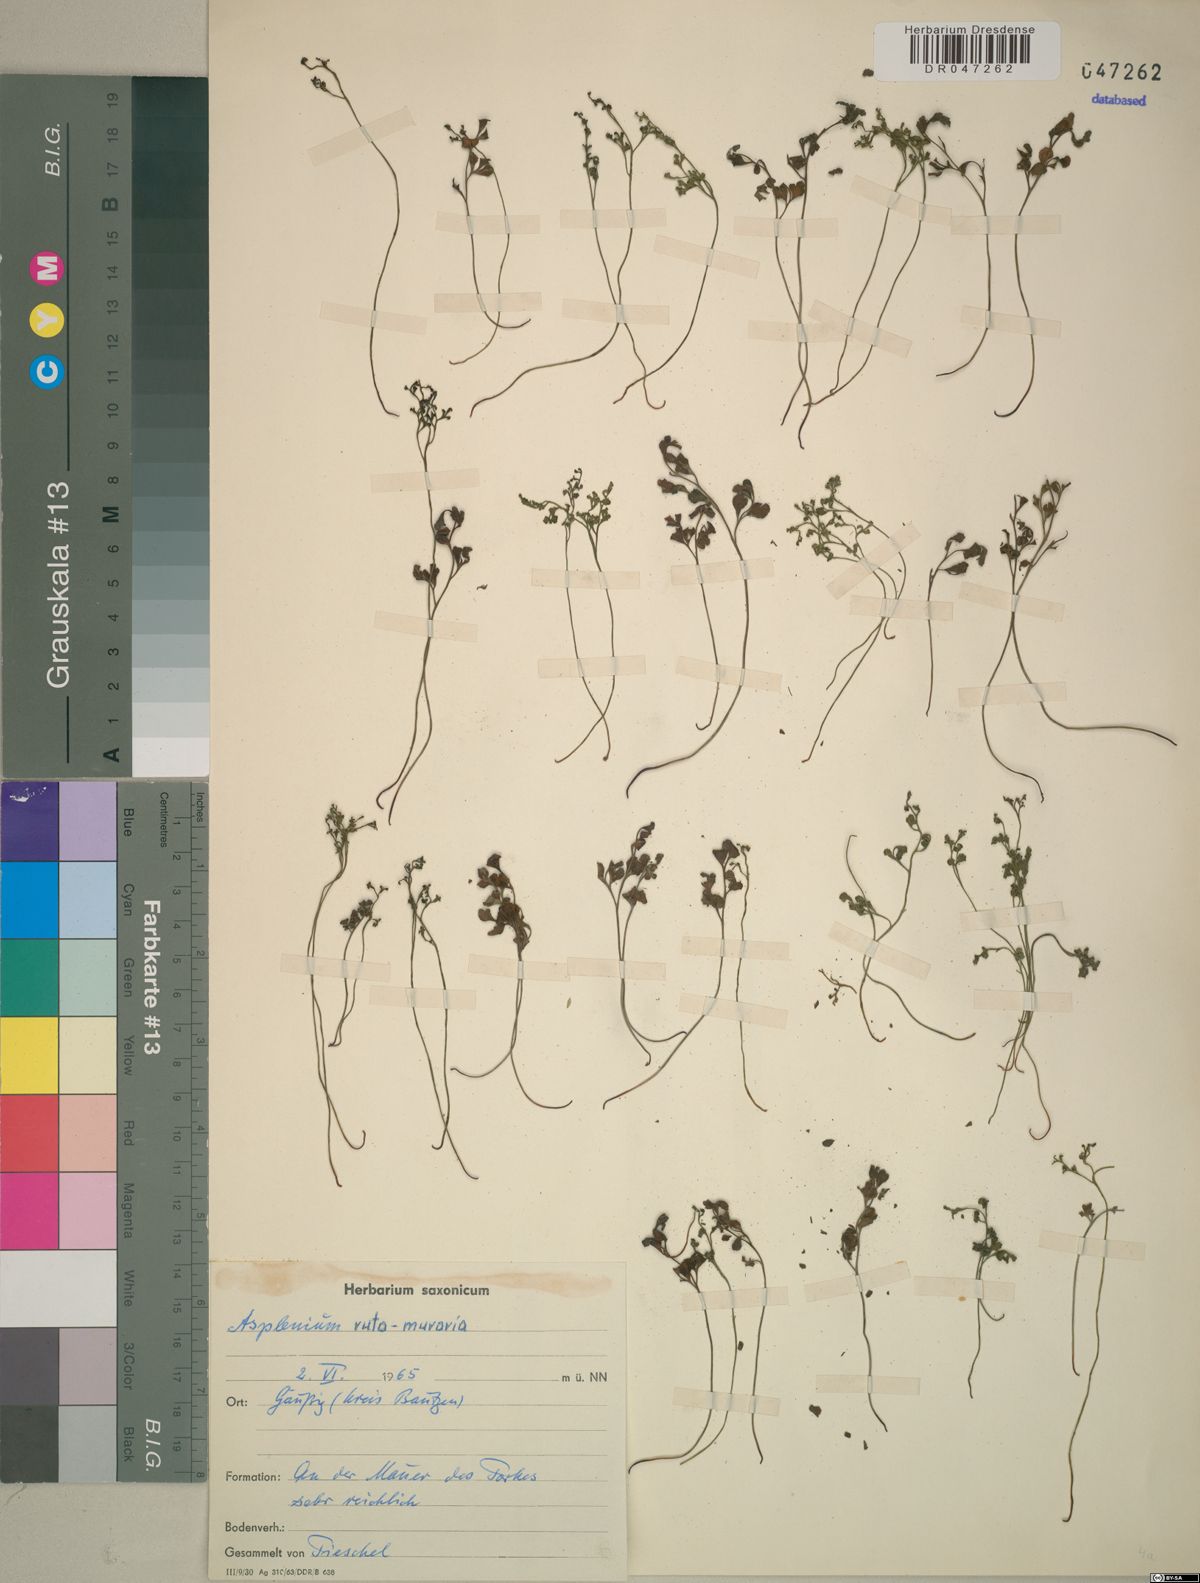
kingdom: Plantae
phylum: Tracheophyta
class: Polypodiopsida
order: Polypodiales
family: Aspleniaceae
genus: Asplenium
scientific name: Asplenium ruta-muraria
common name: Wall-rue
